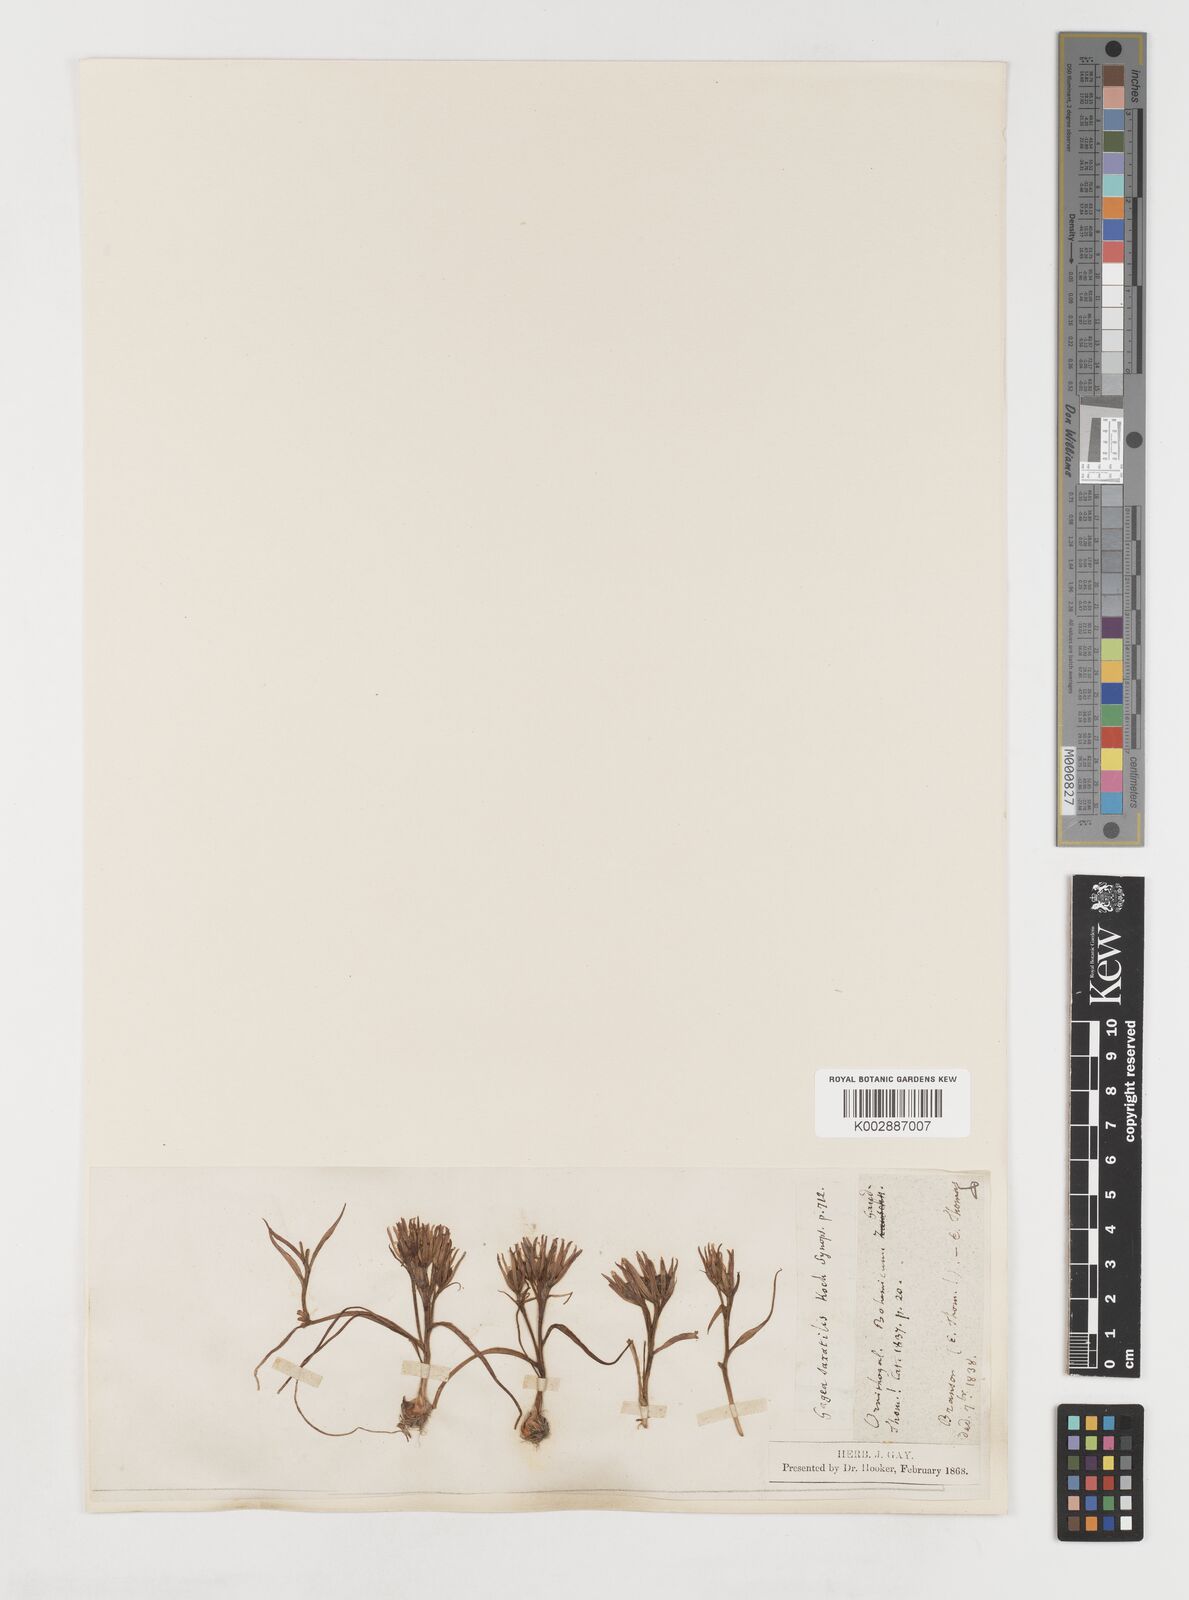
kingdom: Plantae
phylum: Tracheophyta
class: Liliopsida
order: Liliales
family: Liliaceae
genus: Gagea
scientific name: Gagea bohemica
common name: Early star-of-bethlehem
